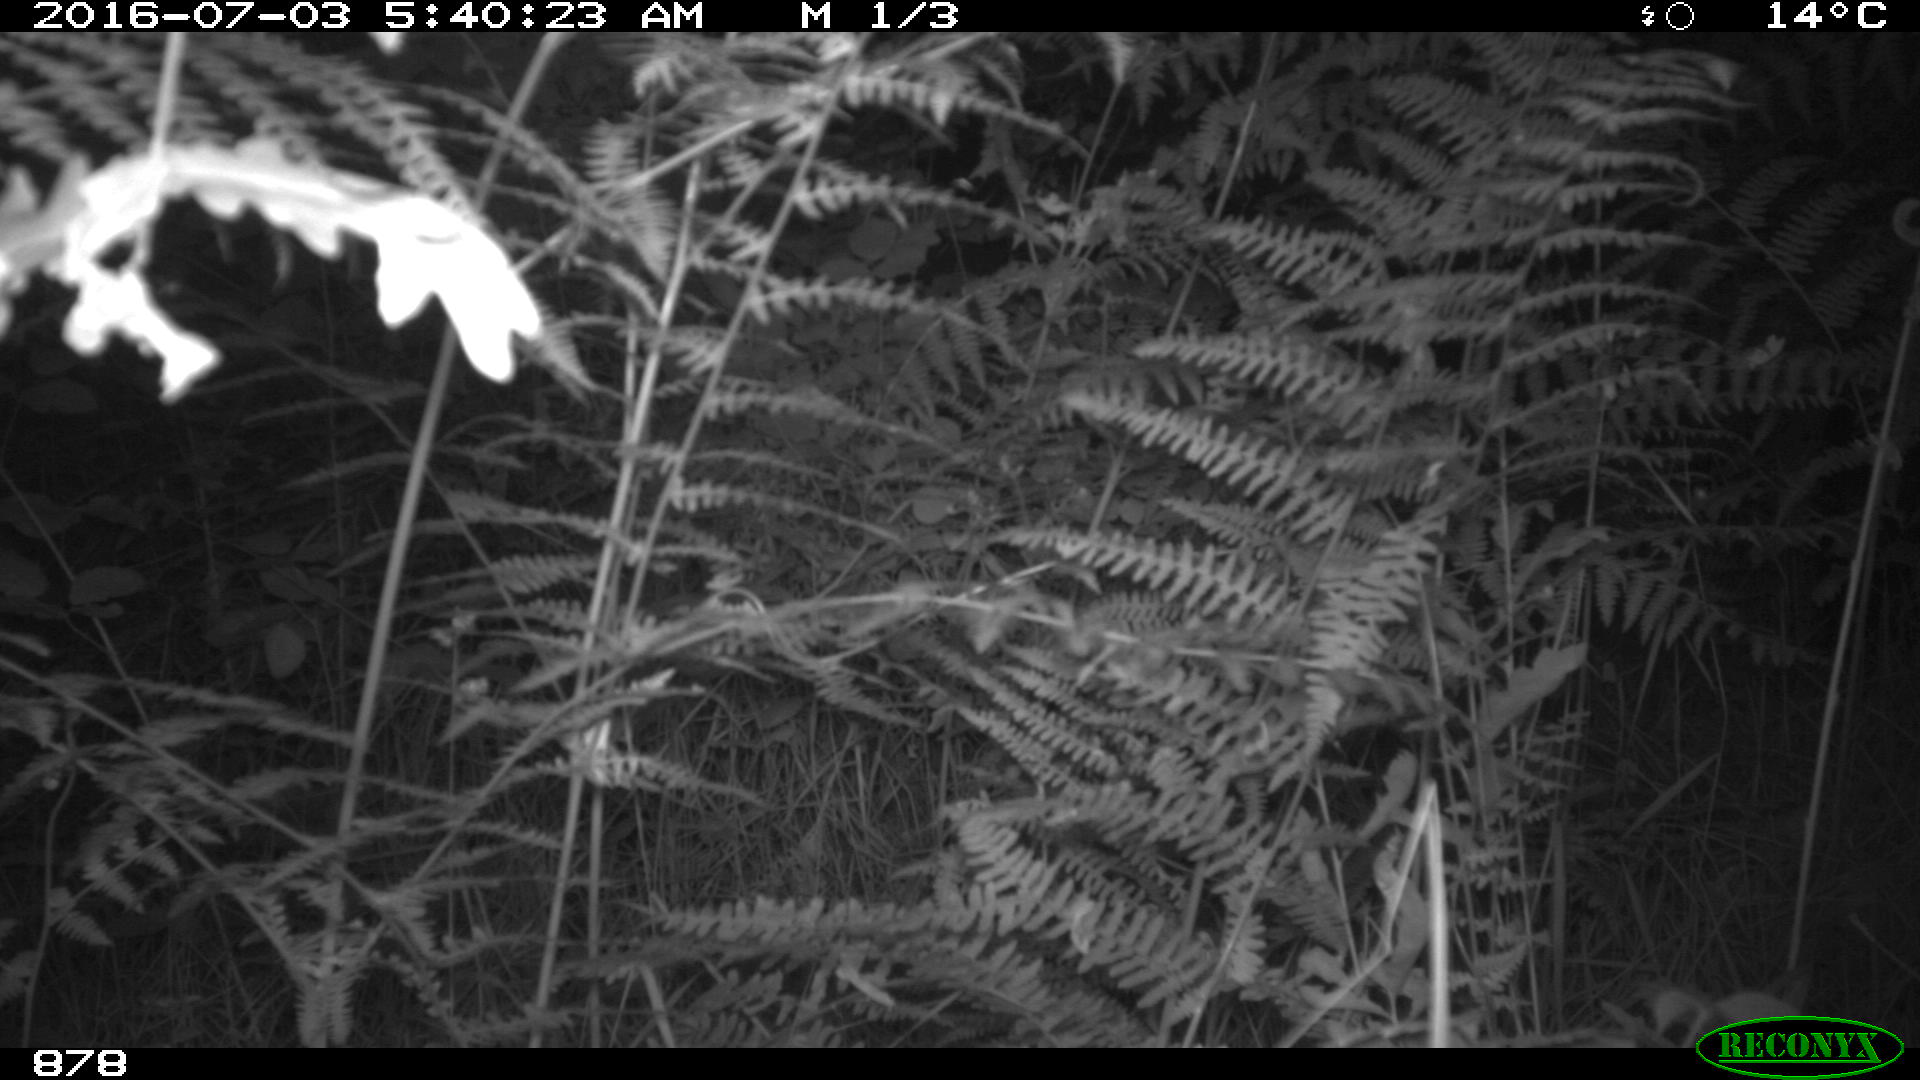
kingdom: Animalia
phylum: Chordata
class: Mammalia
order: Artiodactyla
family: Suidae
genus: Sus
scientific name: Sus scrofa
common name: Wild boar
